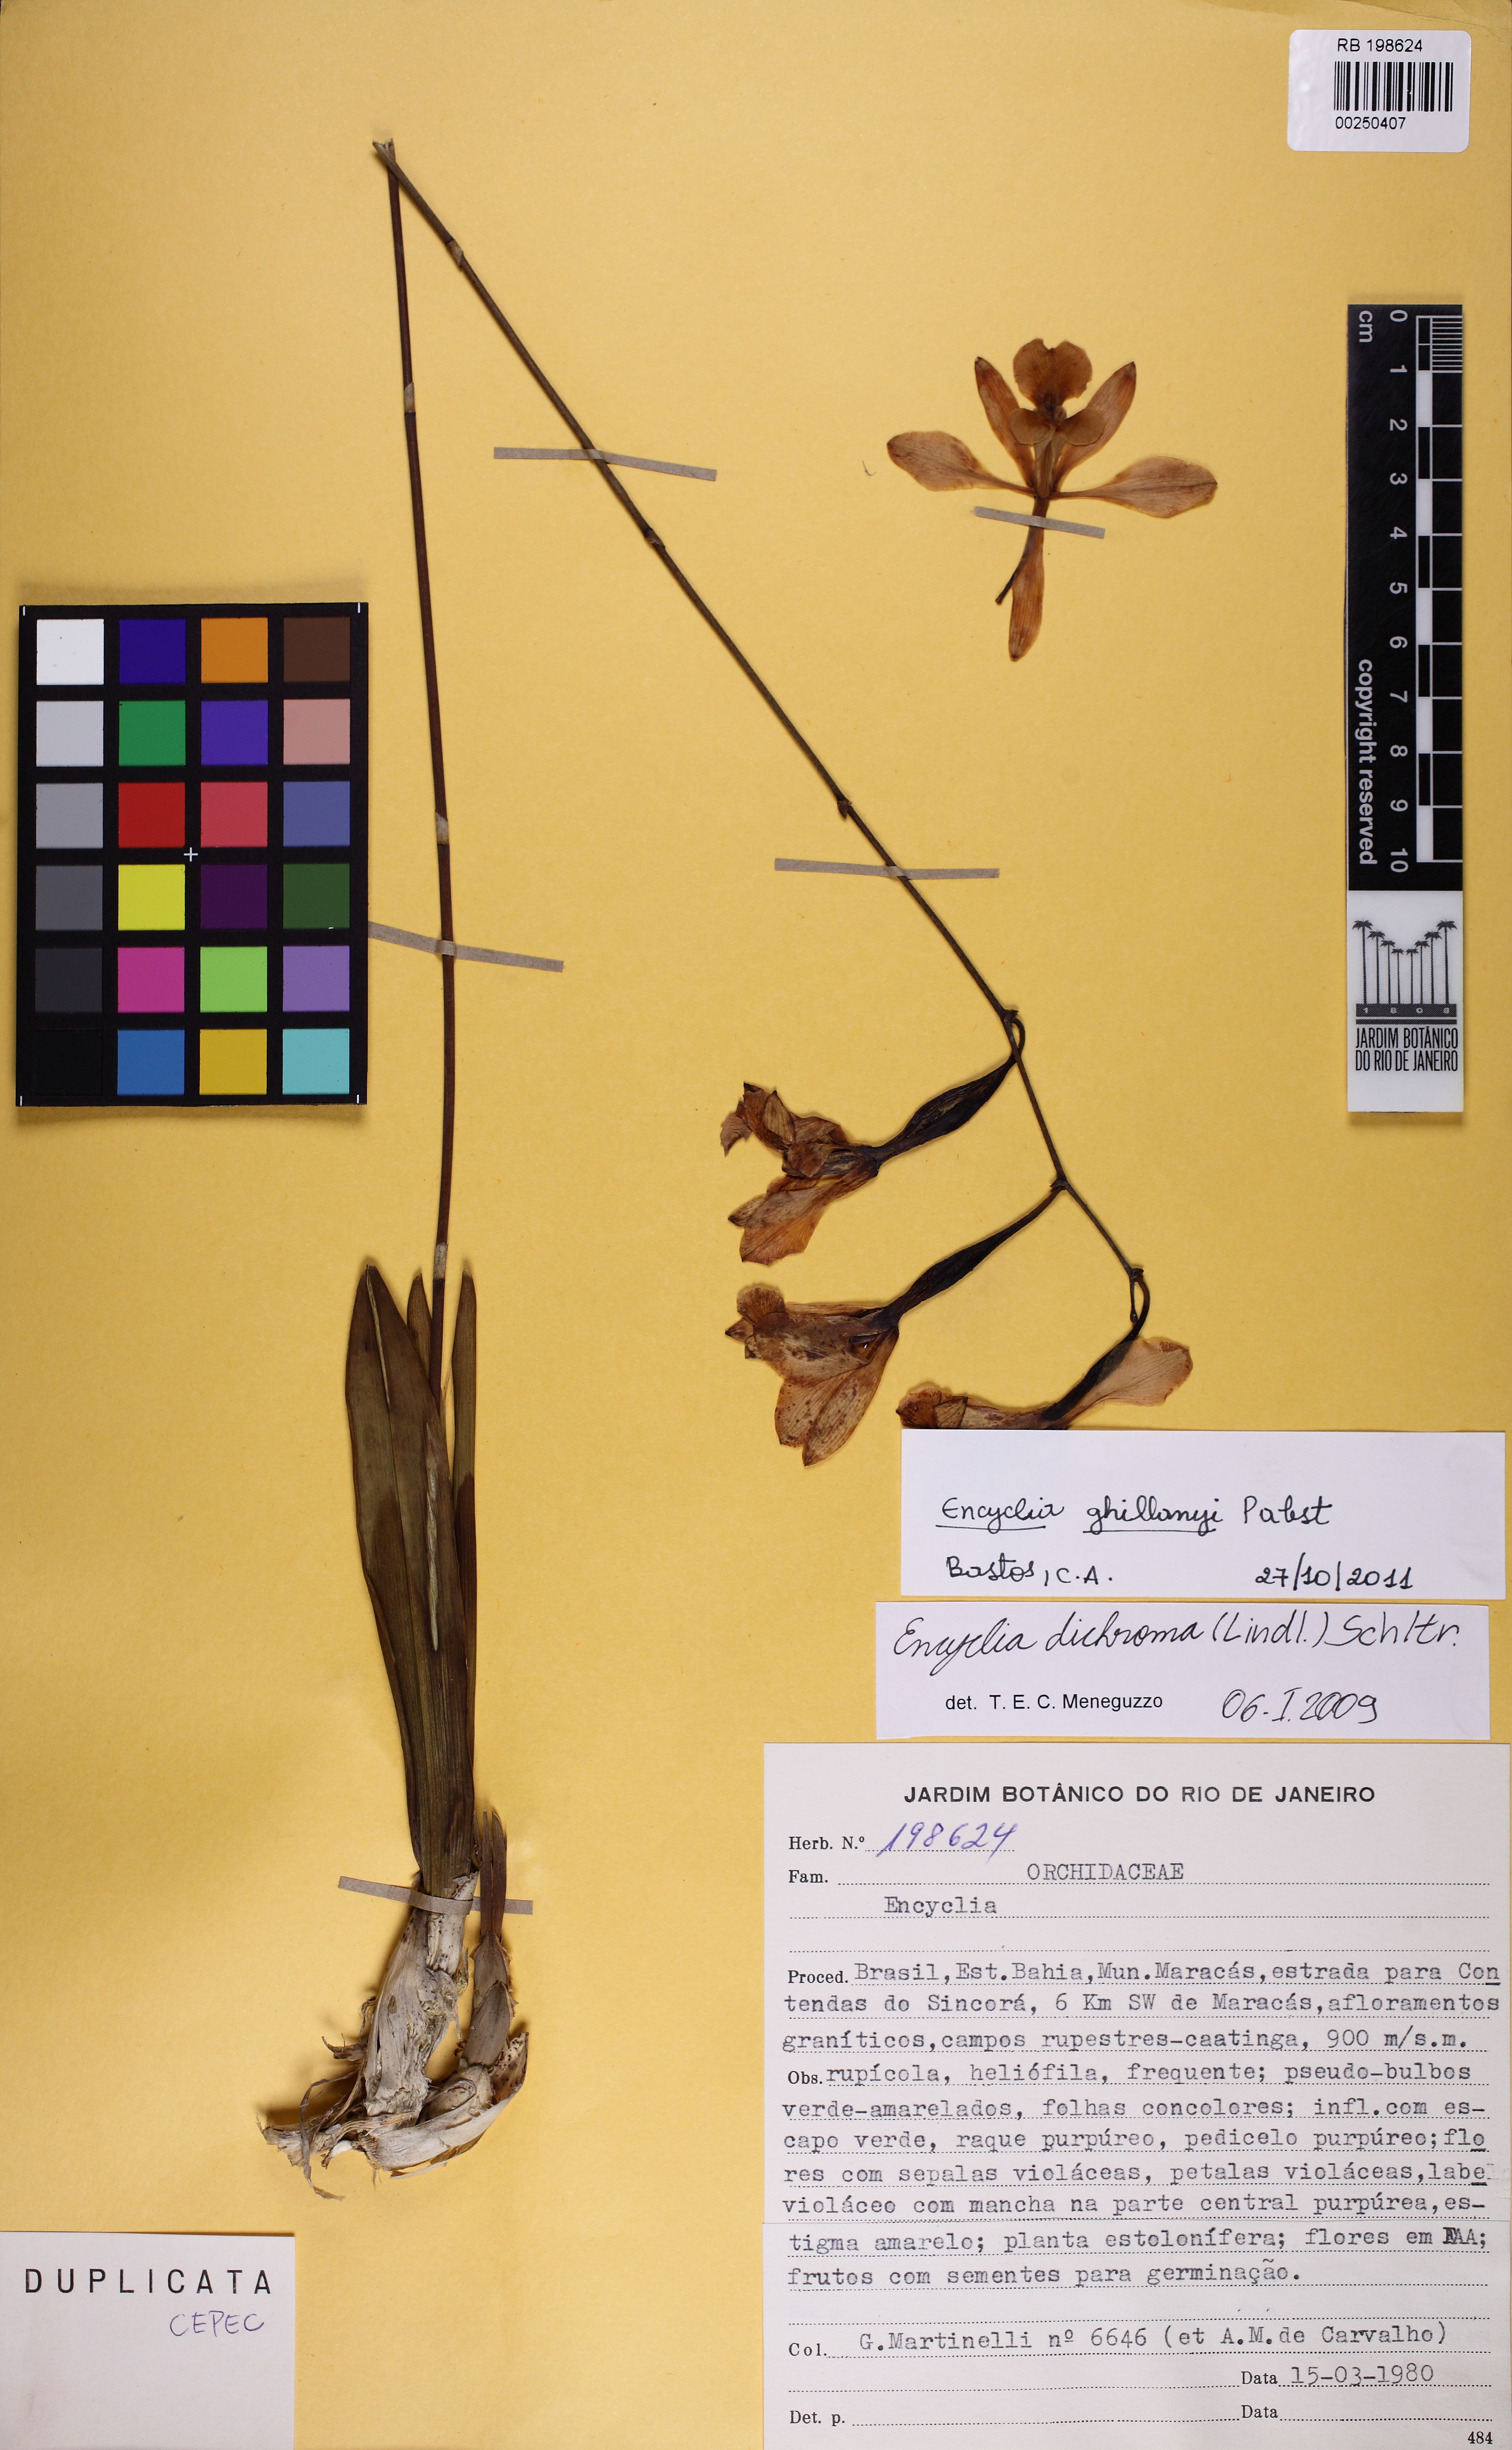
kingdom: Plantae
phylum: Tracheophyta
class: Liliopsida
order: Asparagales
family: Orchidaceae
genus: Encyclia
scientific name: Encyclia jenischiana
